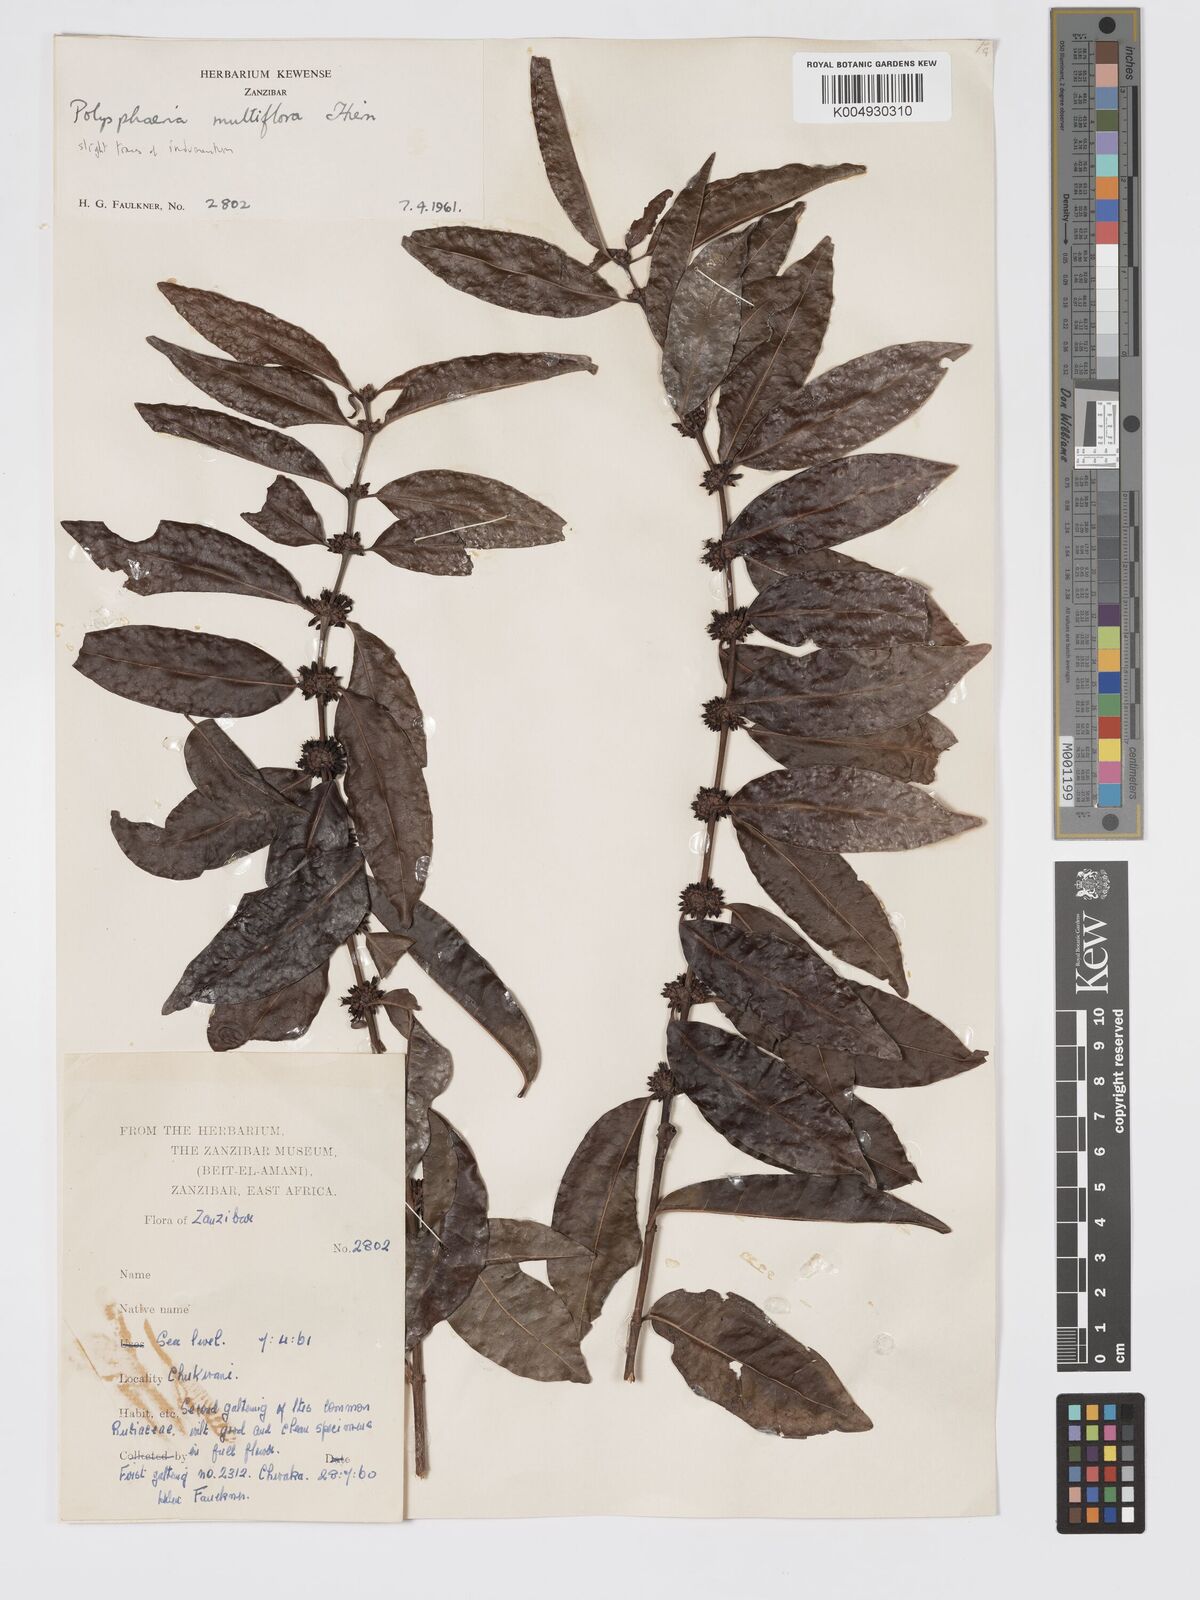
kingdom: Plantae
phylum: Tracheophyta
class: Magnoliopsida
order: Gentianales
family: Rubiaceae
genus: Polysphaeria
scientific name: Polysphaeria multiflora
